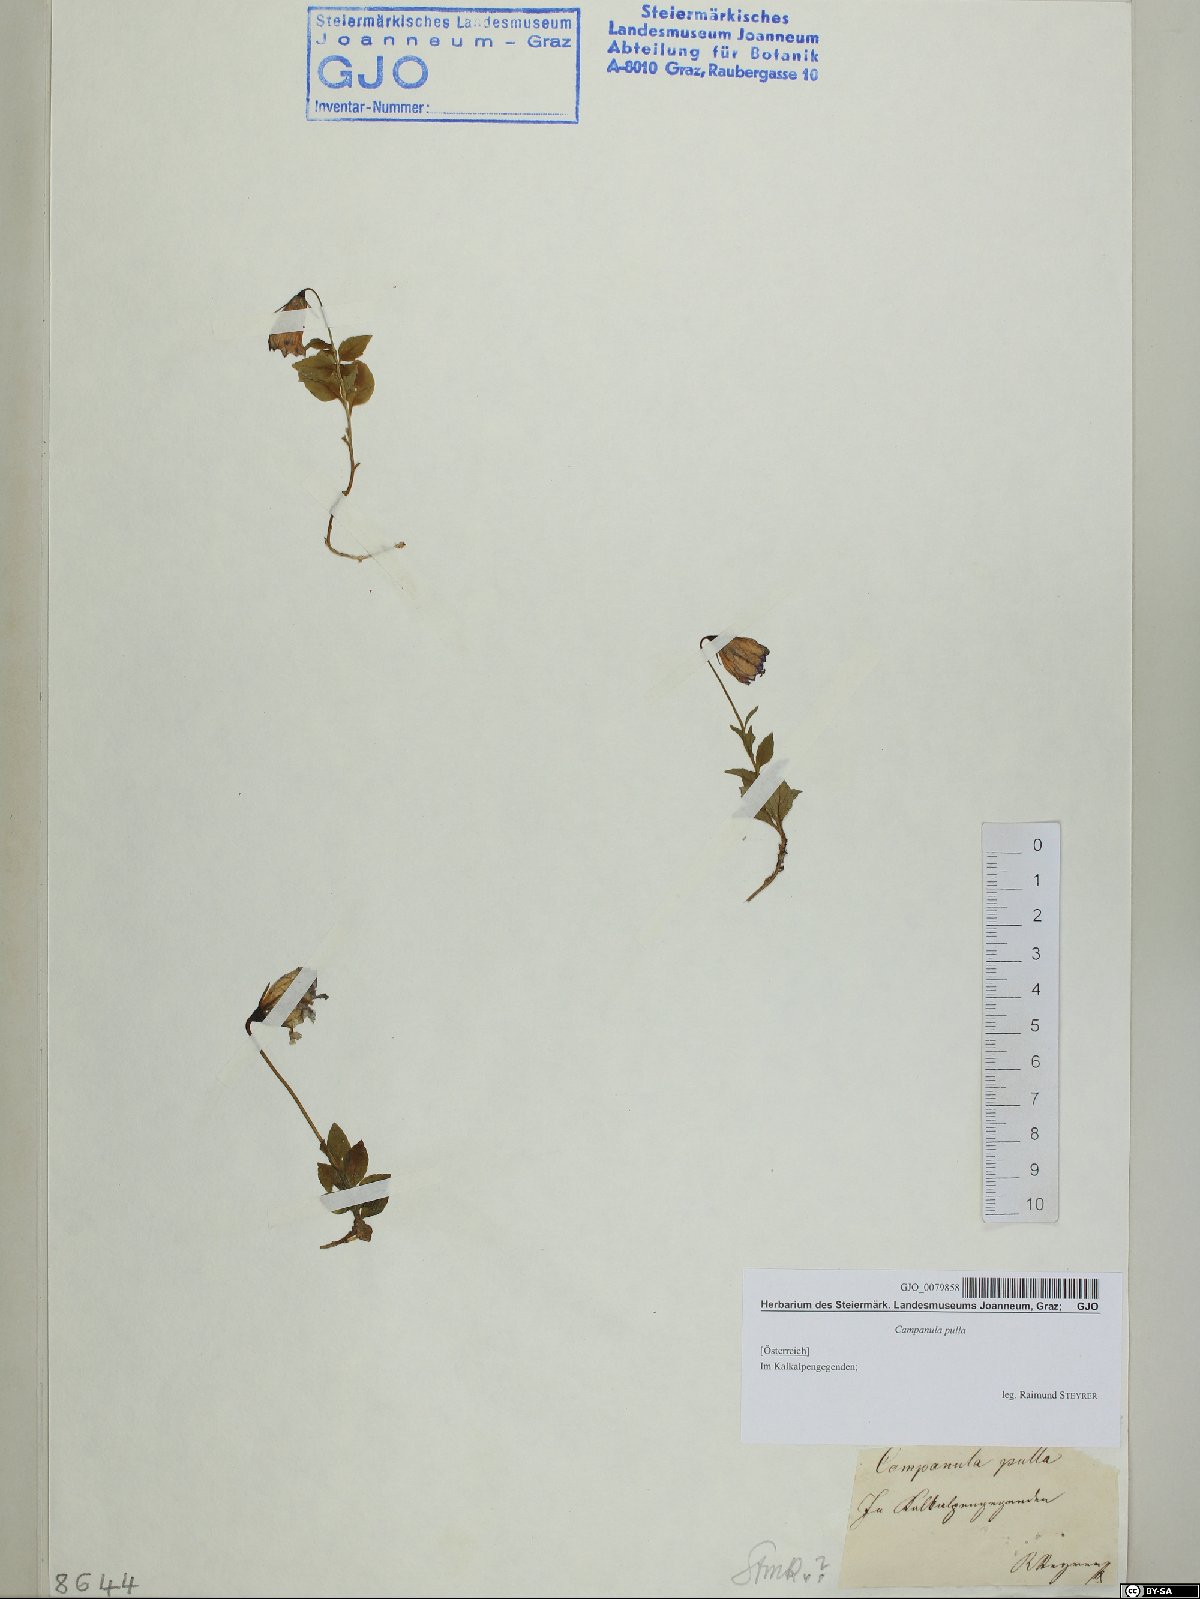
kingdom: Plantae
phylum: Tracheophyta
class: Magnoliopsida
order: Asterales
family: Campanulaceae
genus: Campanula
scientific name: Campanula pulla
